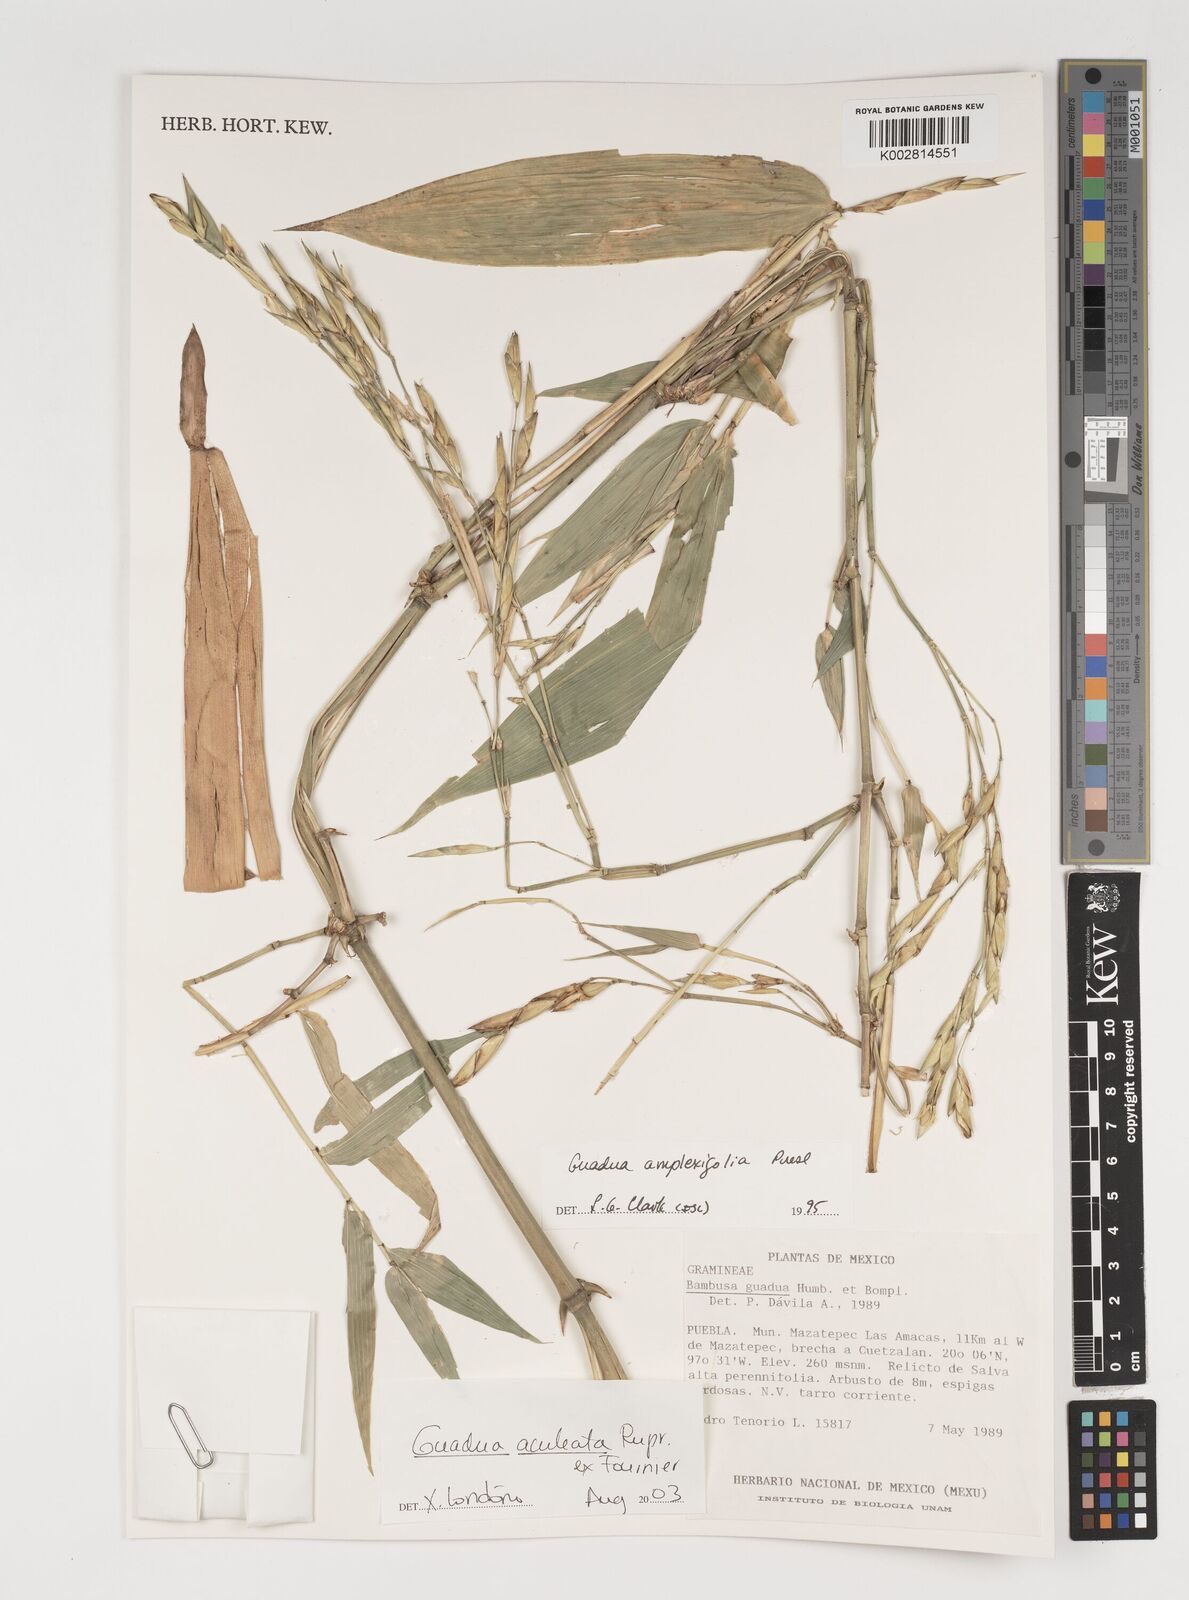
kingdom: Plantae
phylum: Tracheophyta
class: Liliopsida
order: Poales
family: Poaceae
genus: Guadua
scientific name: Guadua aculeata
